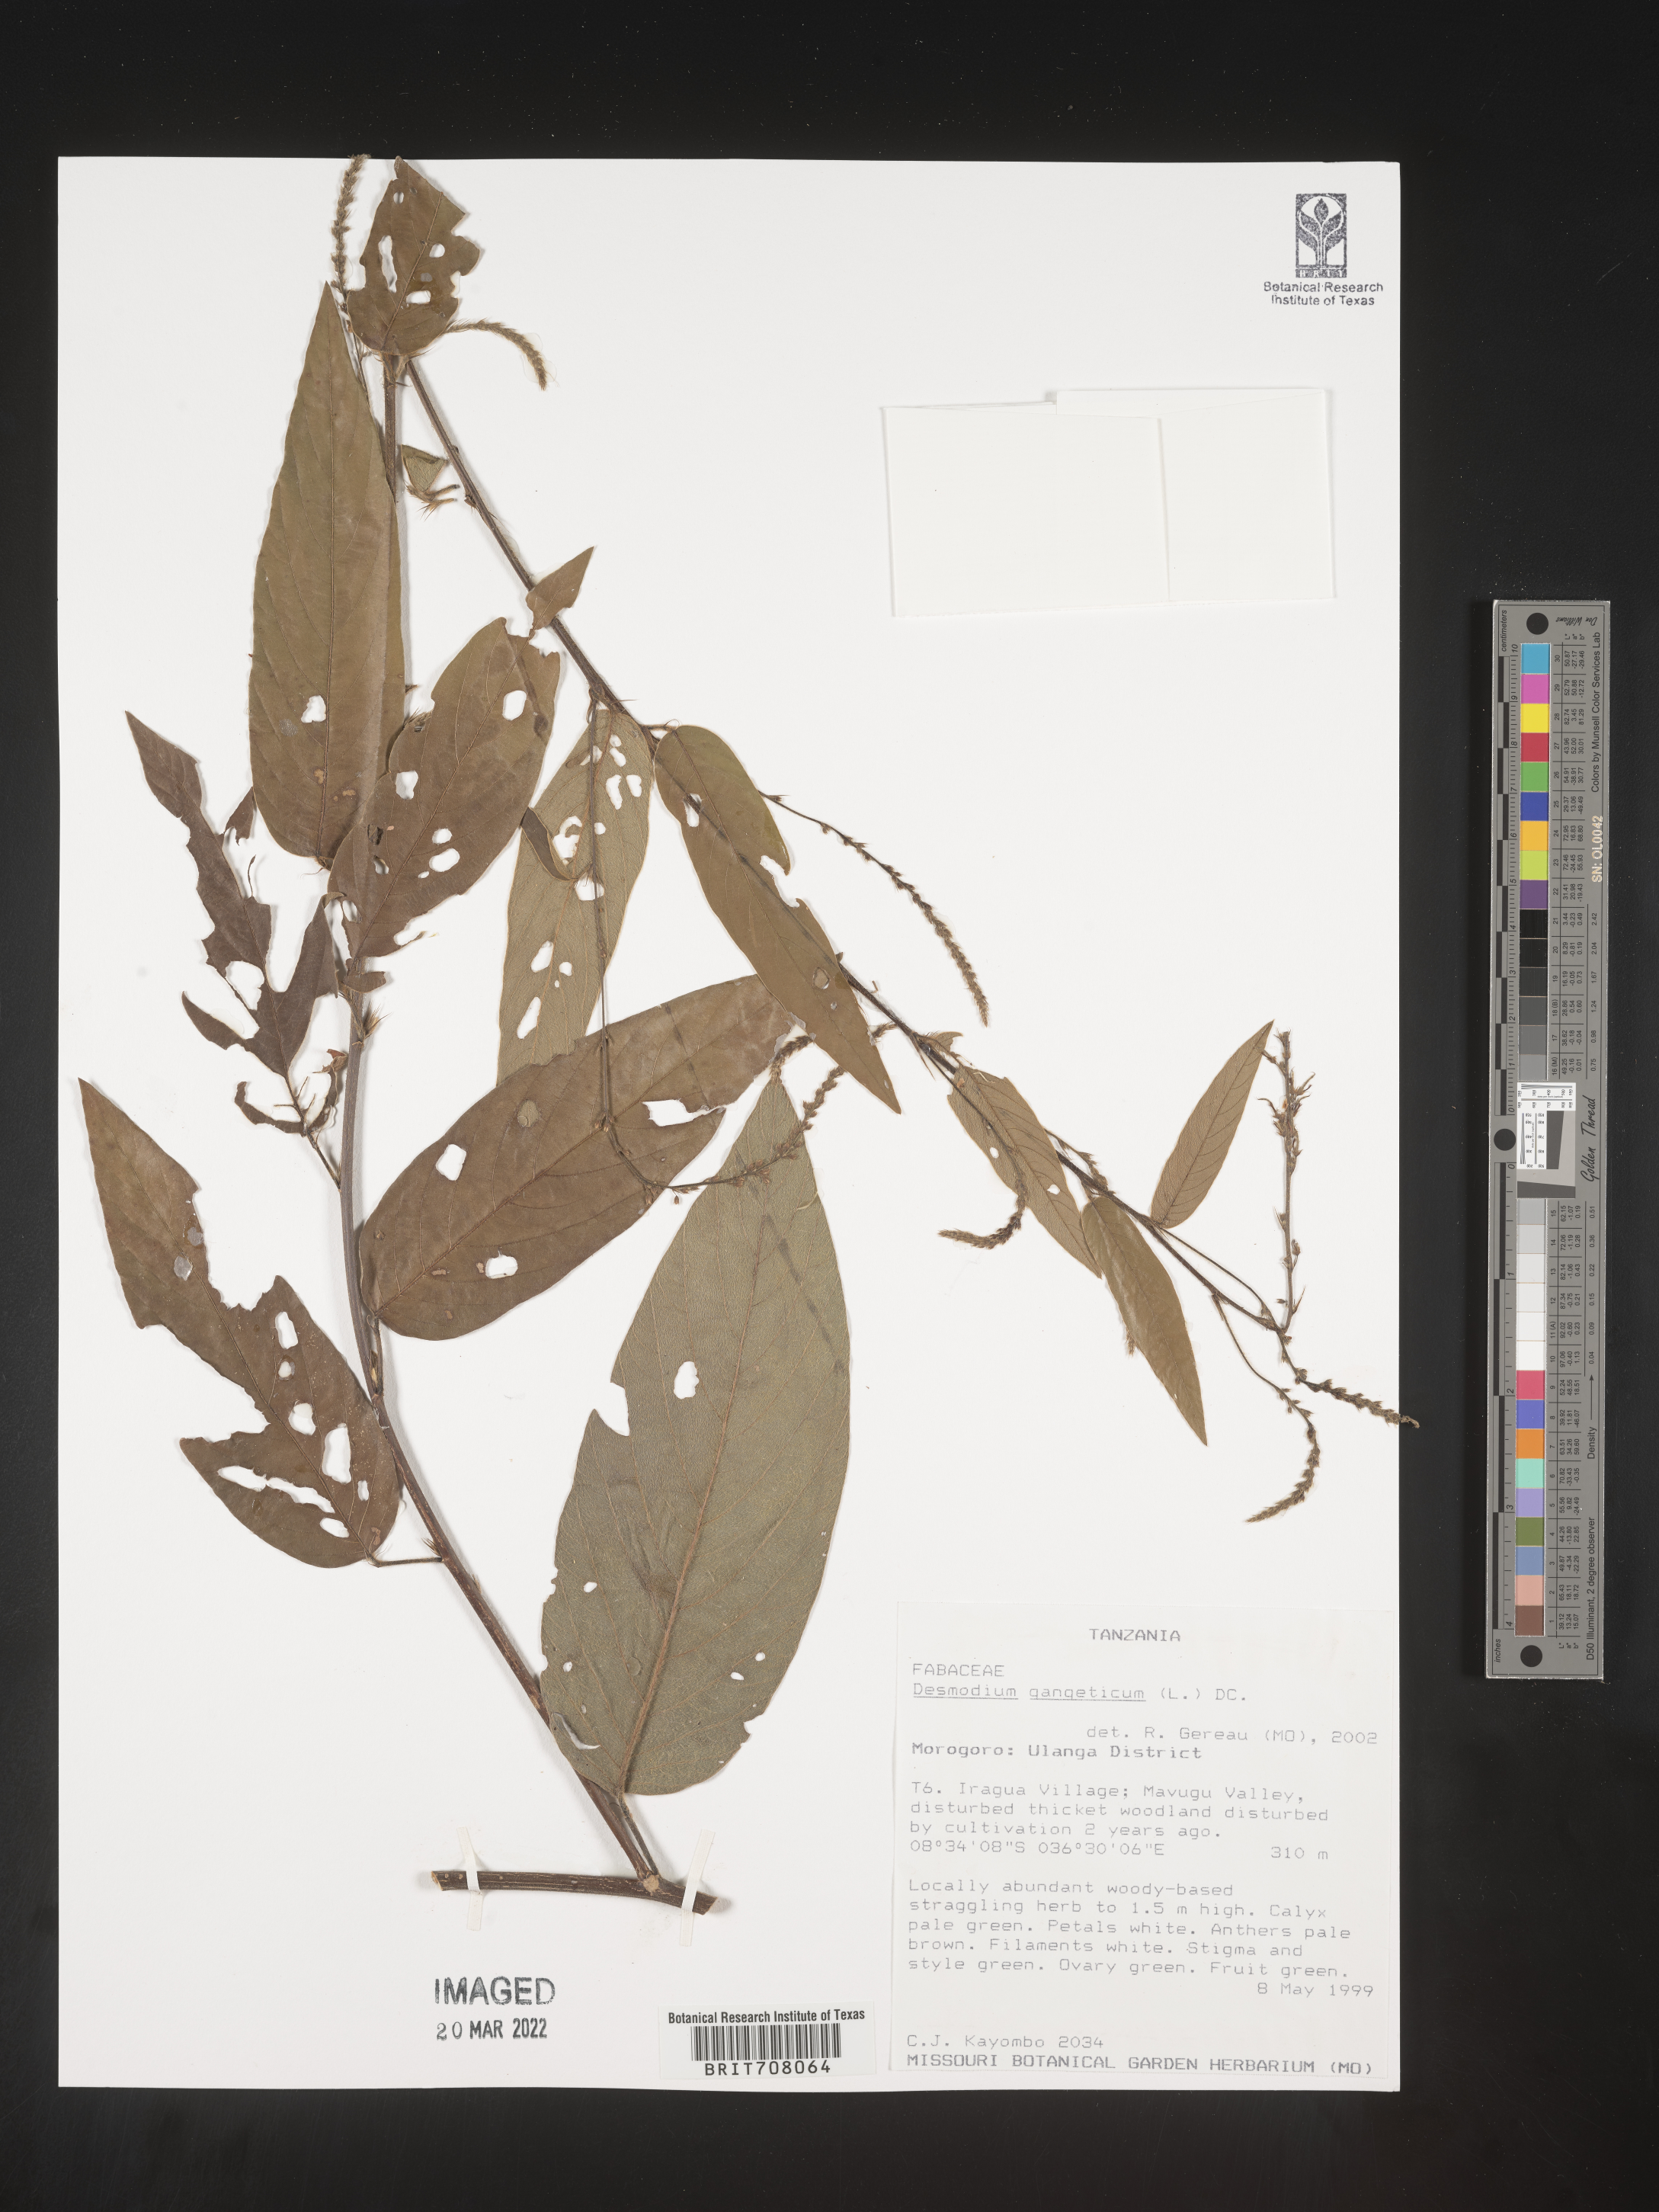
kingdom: Plantae
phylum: Tracheophyta
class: Magnoliopsida
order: Fabales
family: Fabaceae
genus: Desmodium
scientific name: Desmodium
